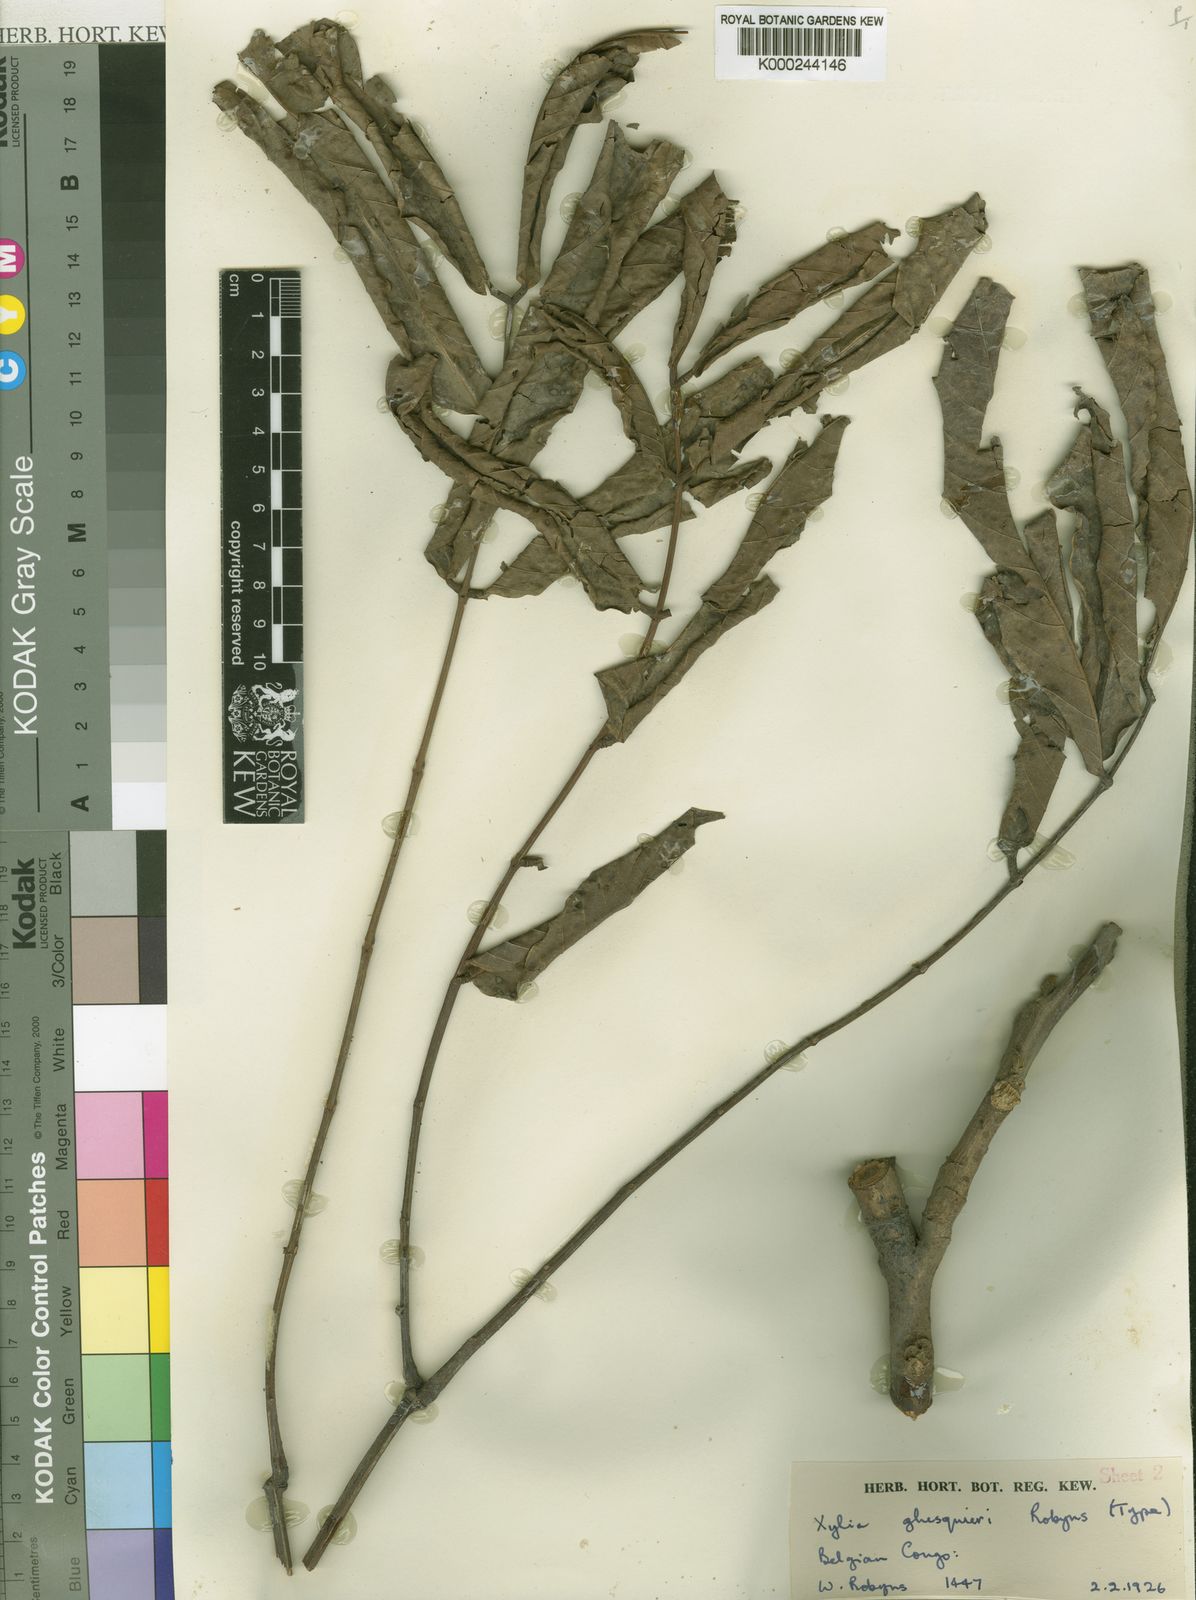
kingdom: Plantae
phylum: Tracheophyta
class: Magnoliopsida
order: Fabales
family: Fabaceae
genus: Xylia
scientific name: Xylia ghesquierei
